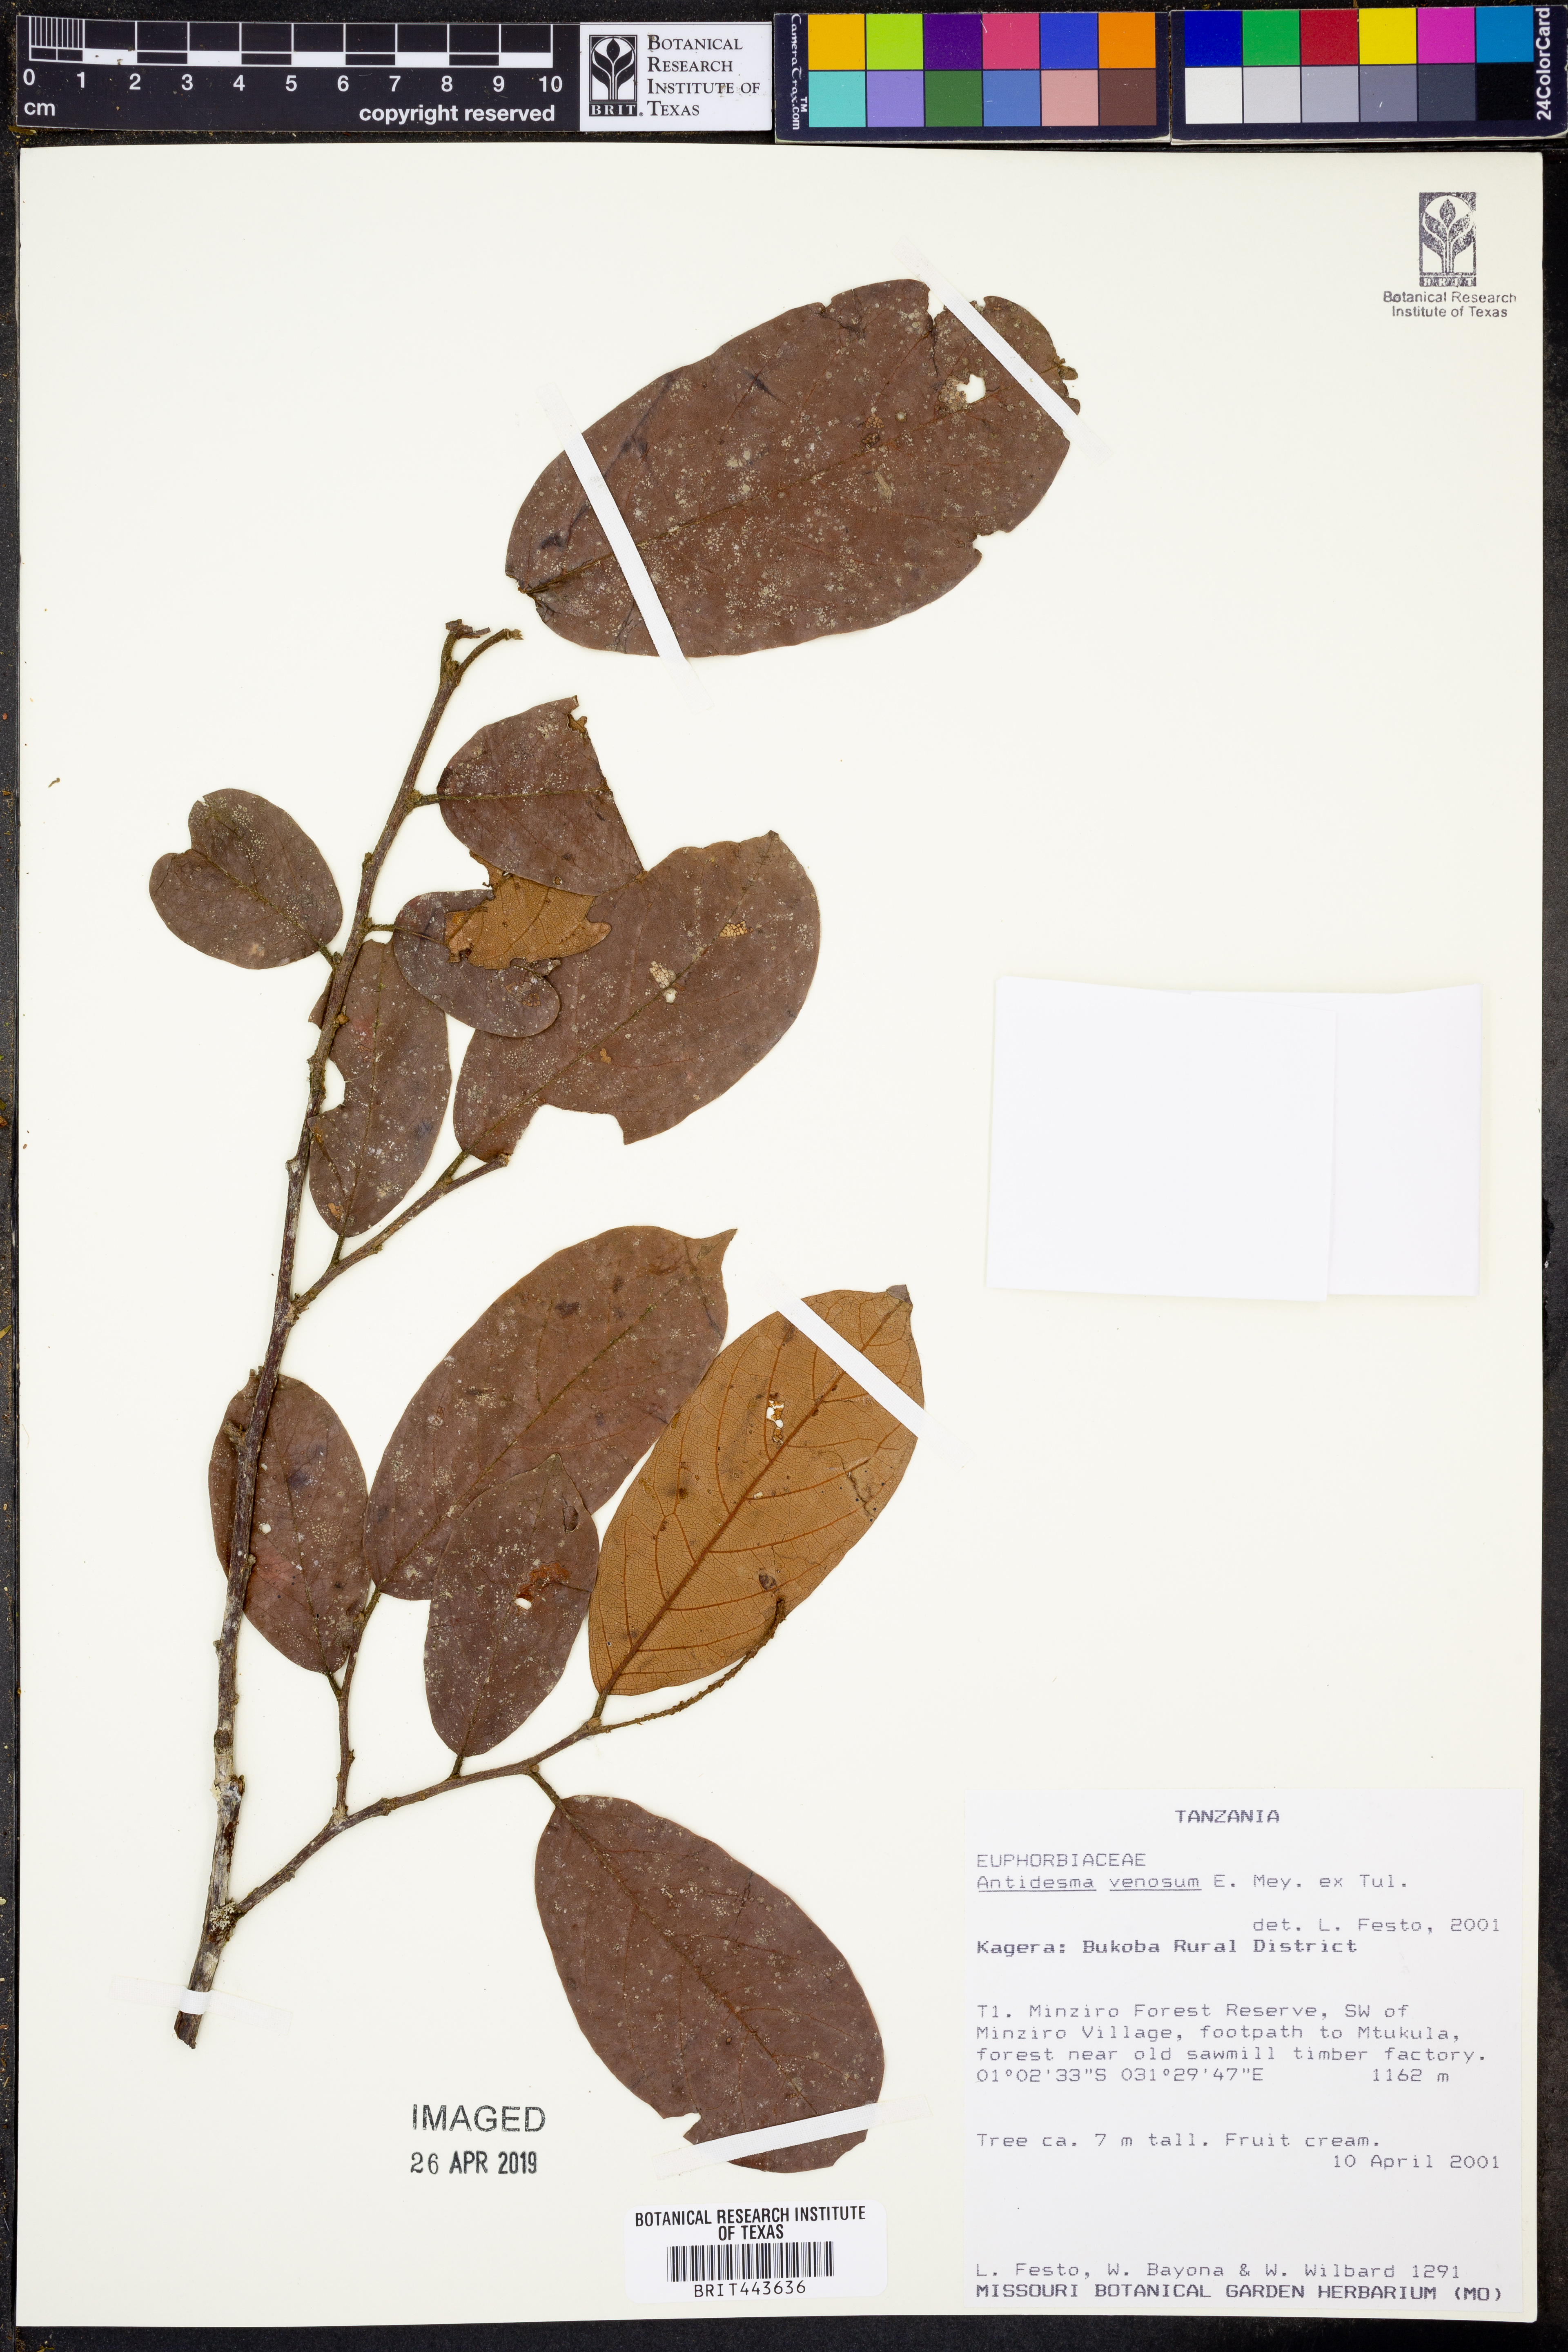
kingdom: Plantae
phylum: Tracheophyta
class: Magnoliopsida
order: Malpighiales
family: Phyllanthaceae
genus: Antidesma
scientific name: Antidesma venosum
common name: Tassel-berry
